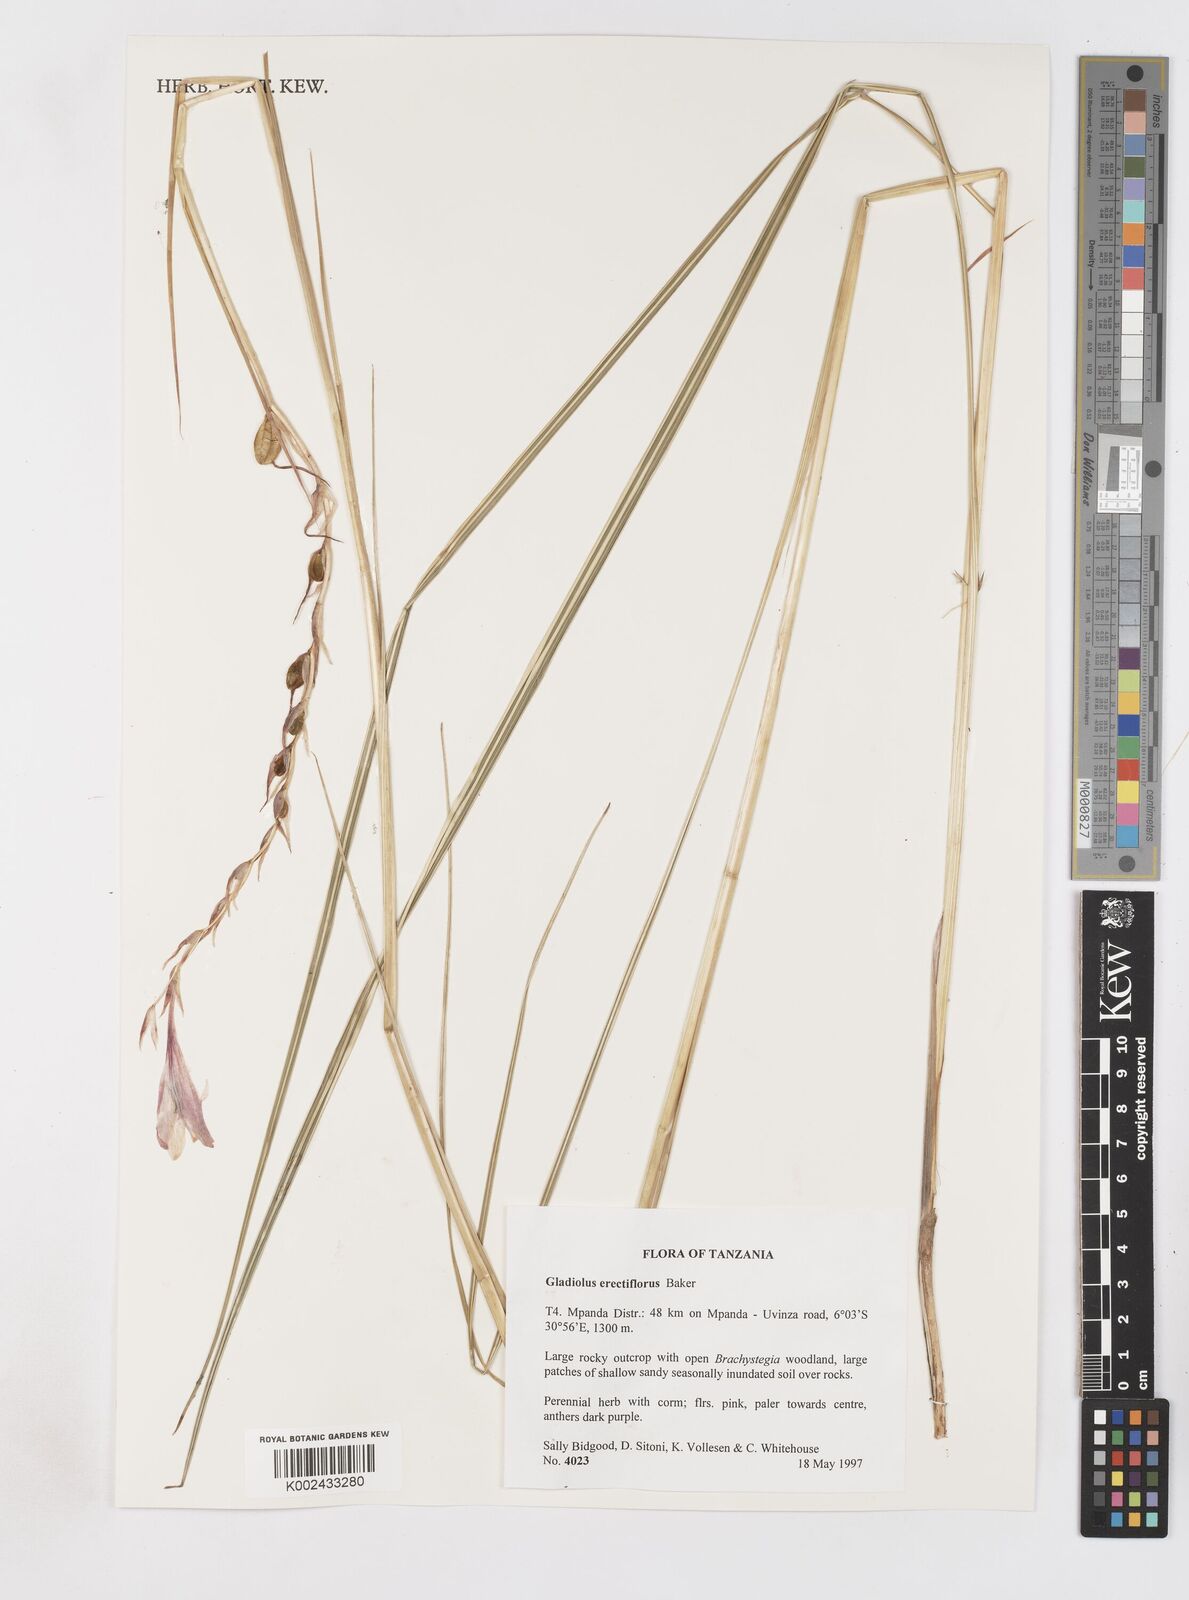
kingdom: Plantae
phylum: Tracheophyta
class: Liliopsida
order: Asparagales
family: Iridaceae
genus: Gladiolus
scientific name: Gladiolus erectiflorus
